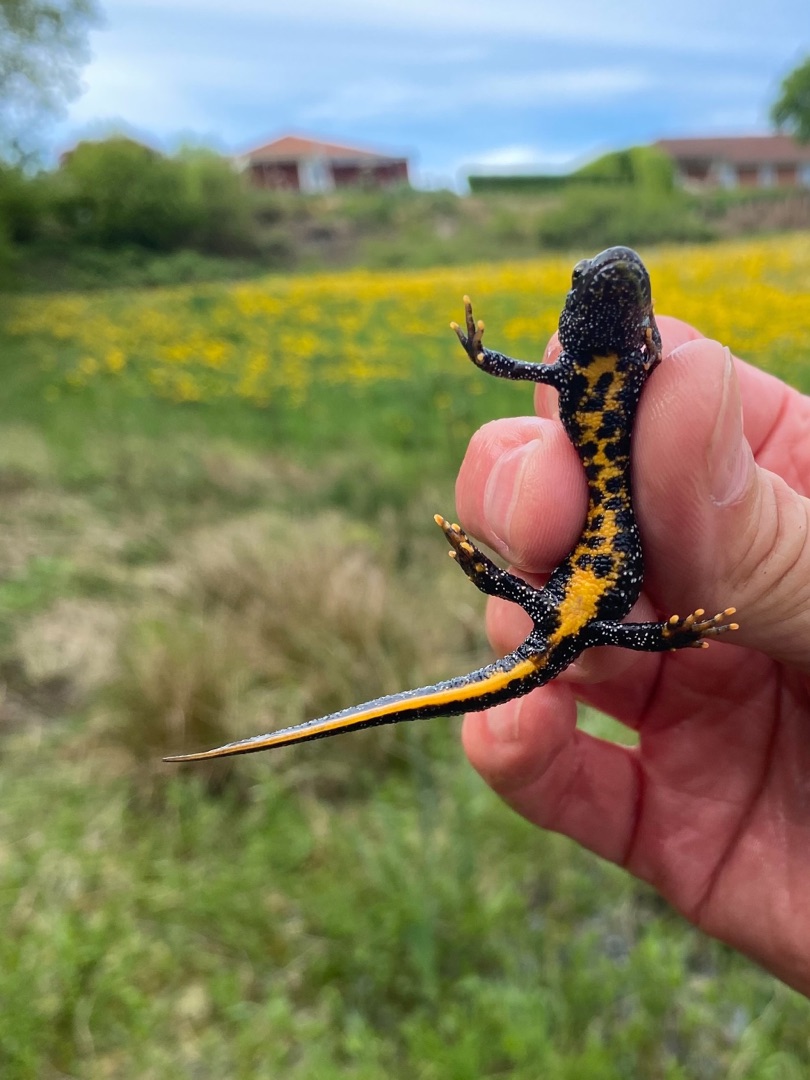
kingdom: Animalia
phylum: Chordata
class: Amphibia
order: Caudata
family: Salamandridae
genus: Triturus
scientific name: Triturus cristatus
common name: Stor vandsalamander
